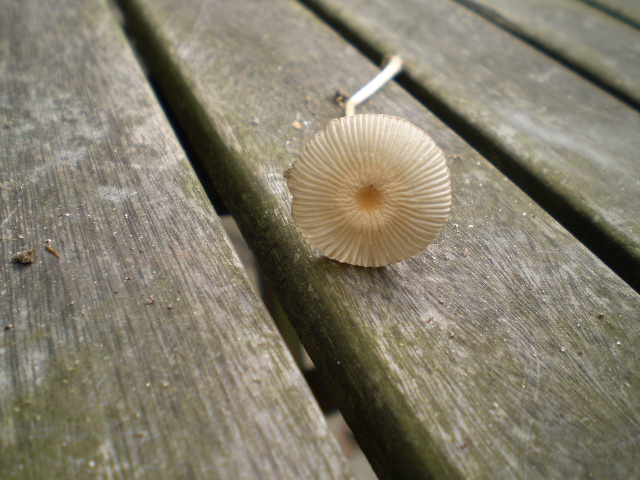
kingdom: Fungi
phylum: Basidiomycota
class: Agaricomycetes
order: Agaricales
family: Psathyrellaceae
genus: Parasola
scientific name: Parasola lactea
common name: glat hjulhat
